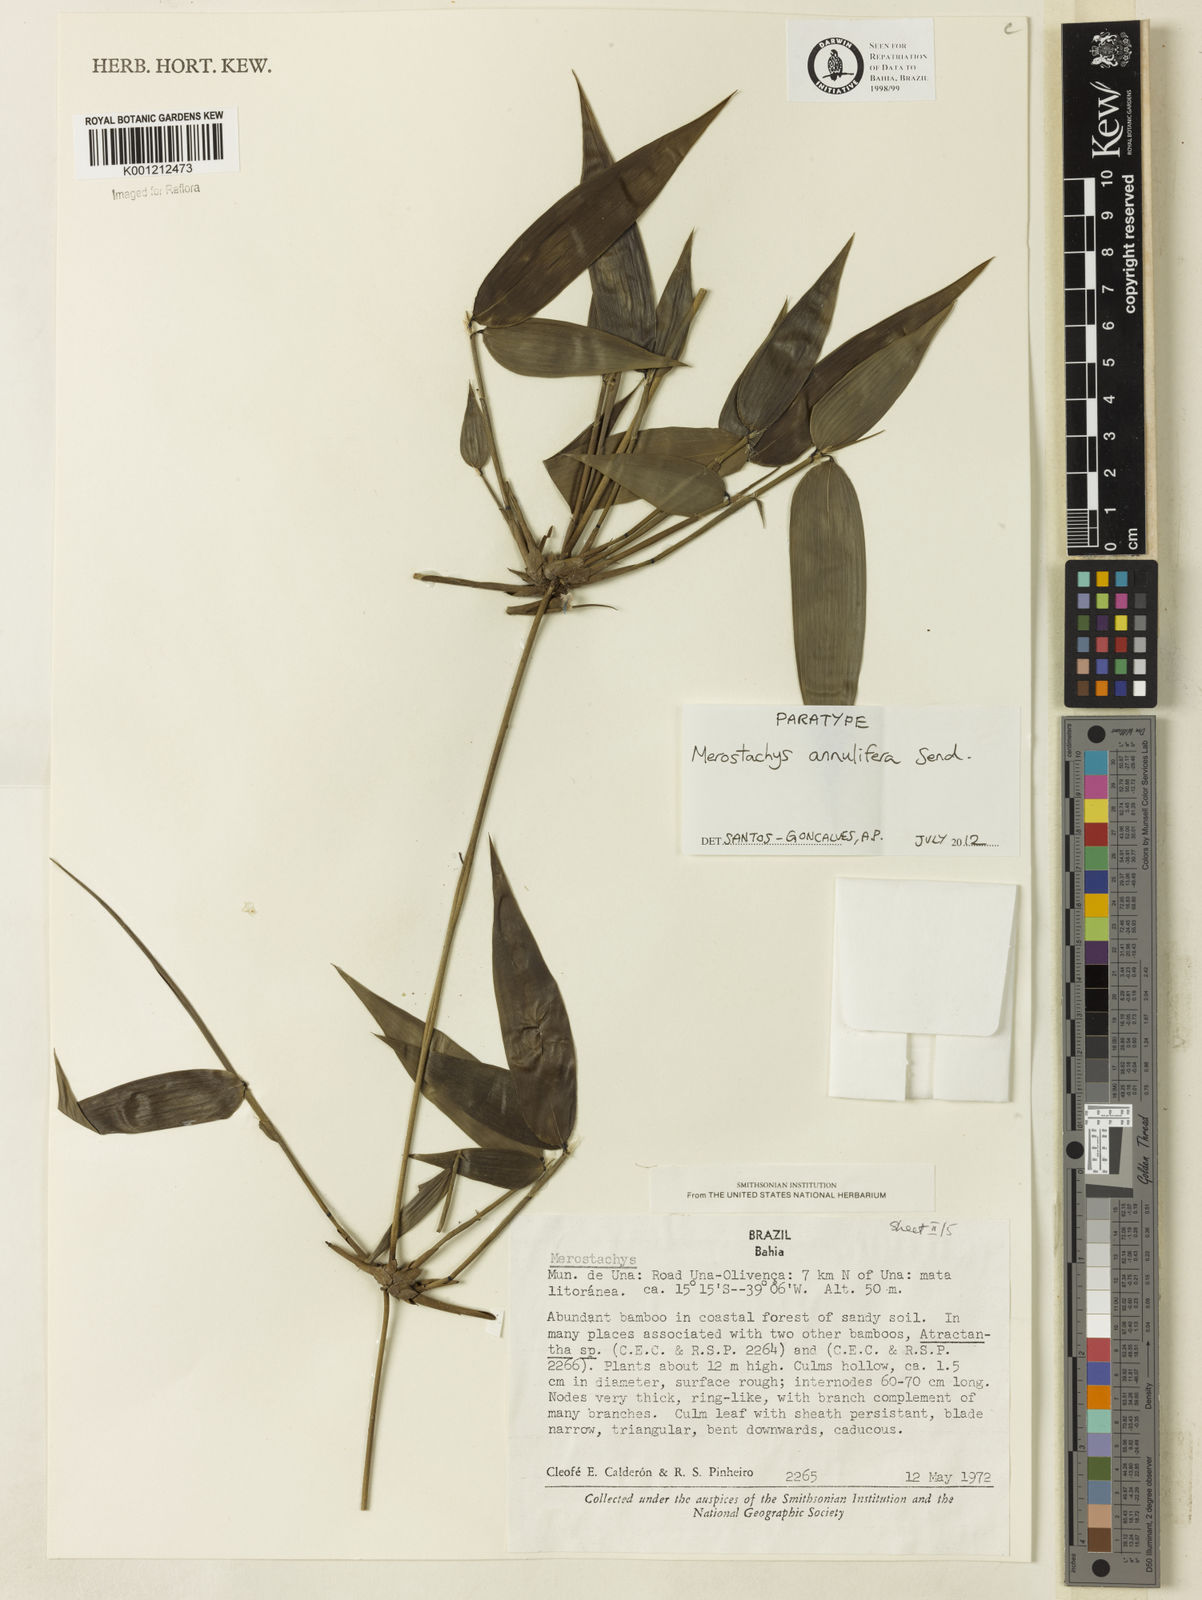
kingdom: Plantae
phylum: Tracheophyta
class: Liliopsida
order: Poales
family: Poaceae
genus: Merostachys
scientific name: Merostachys annulifera
